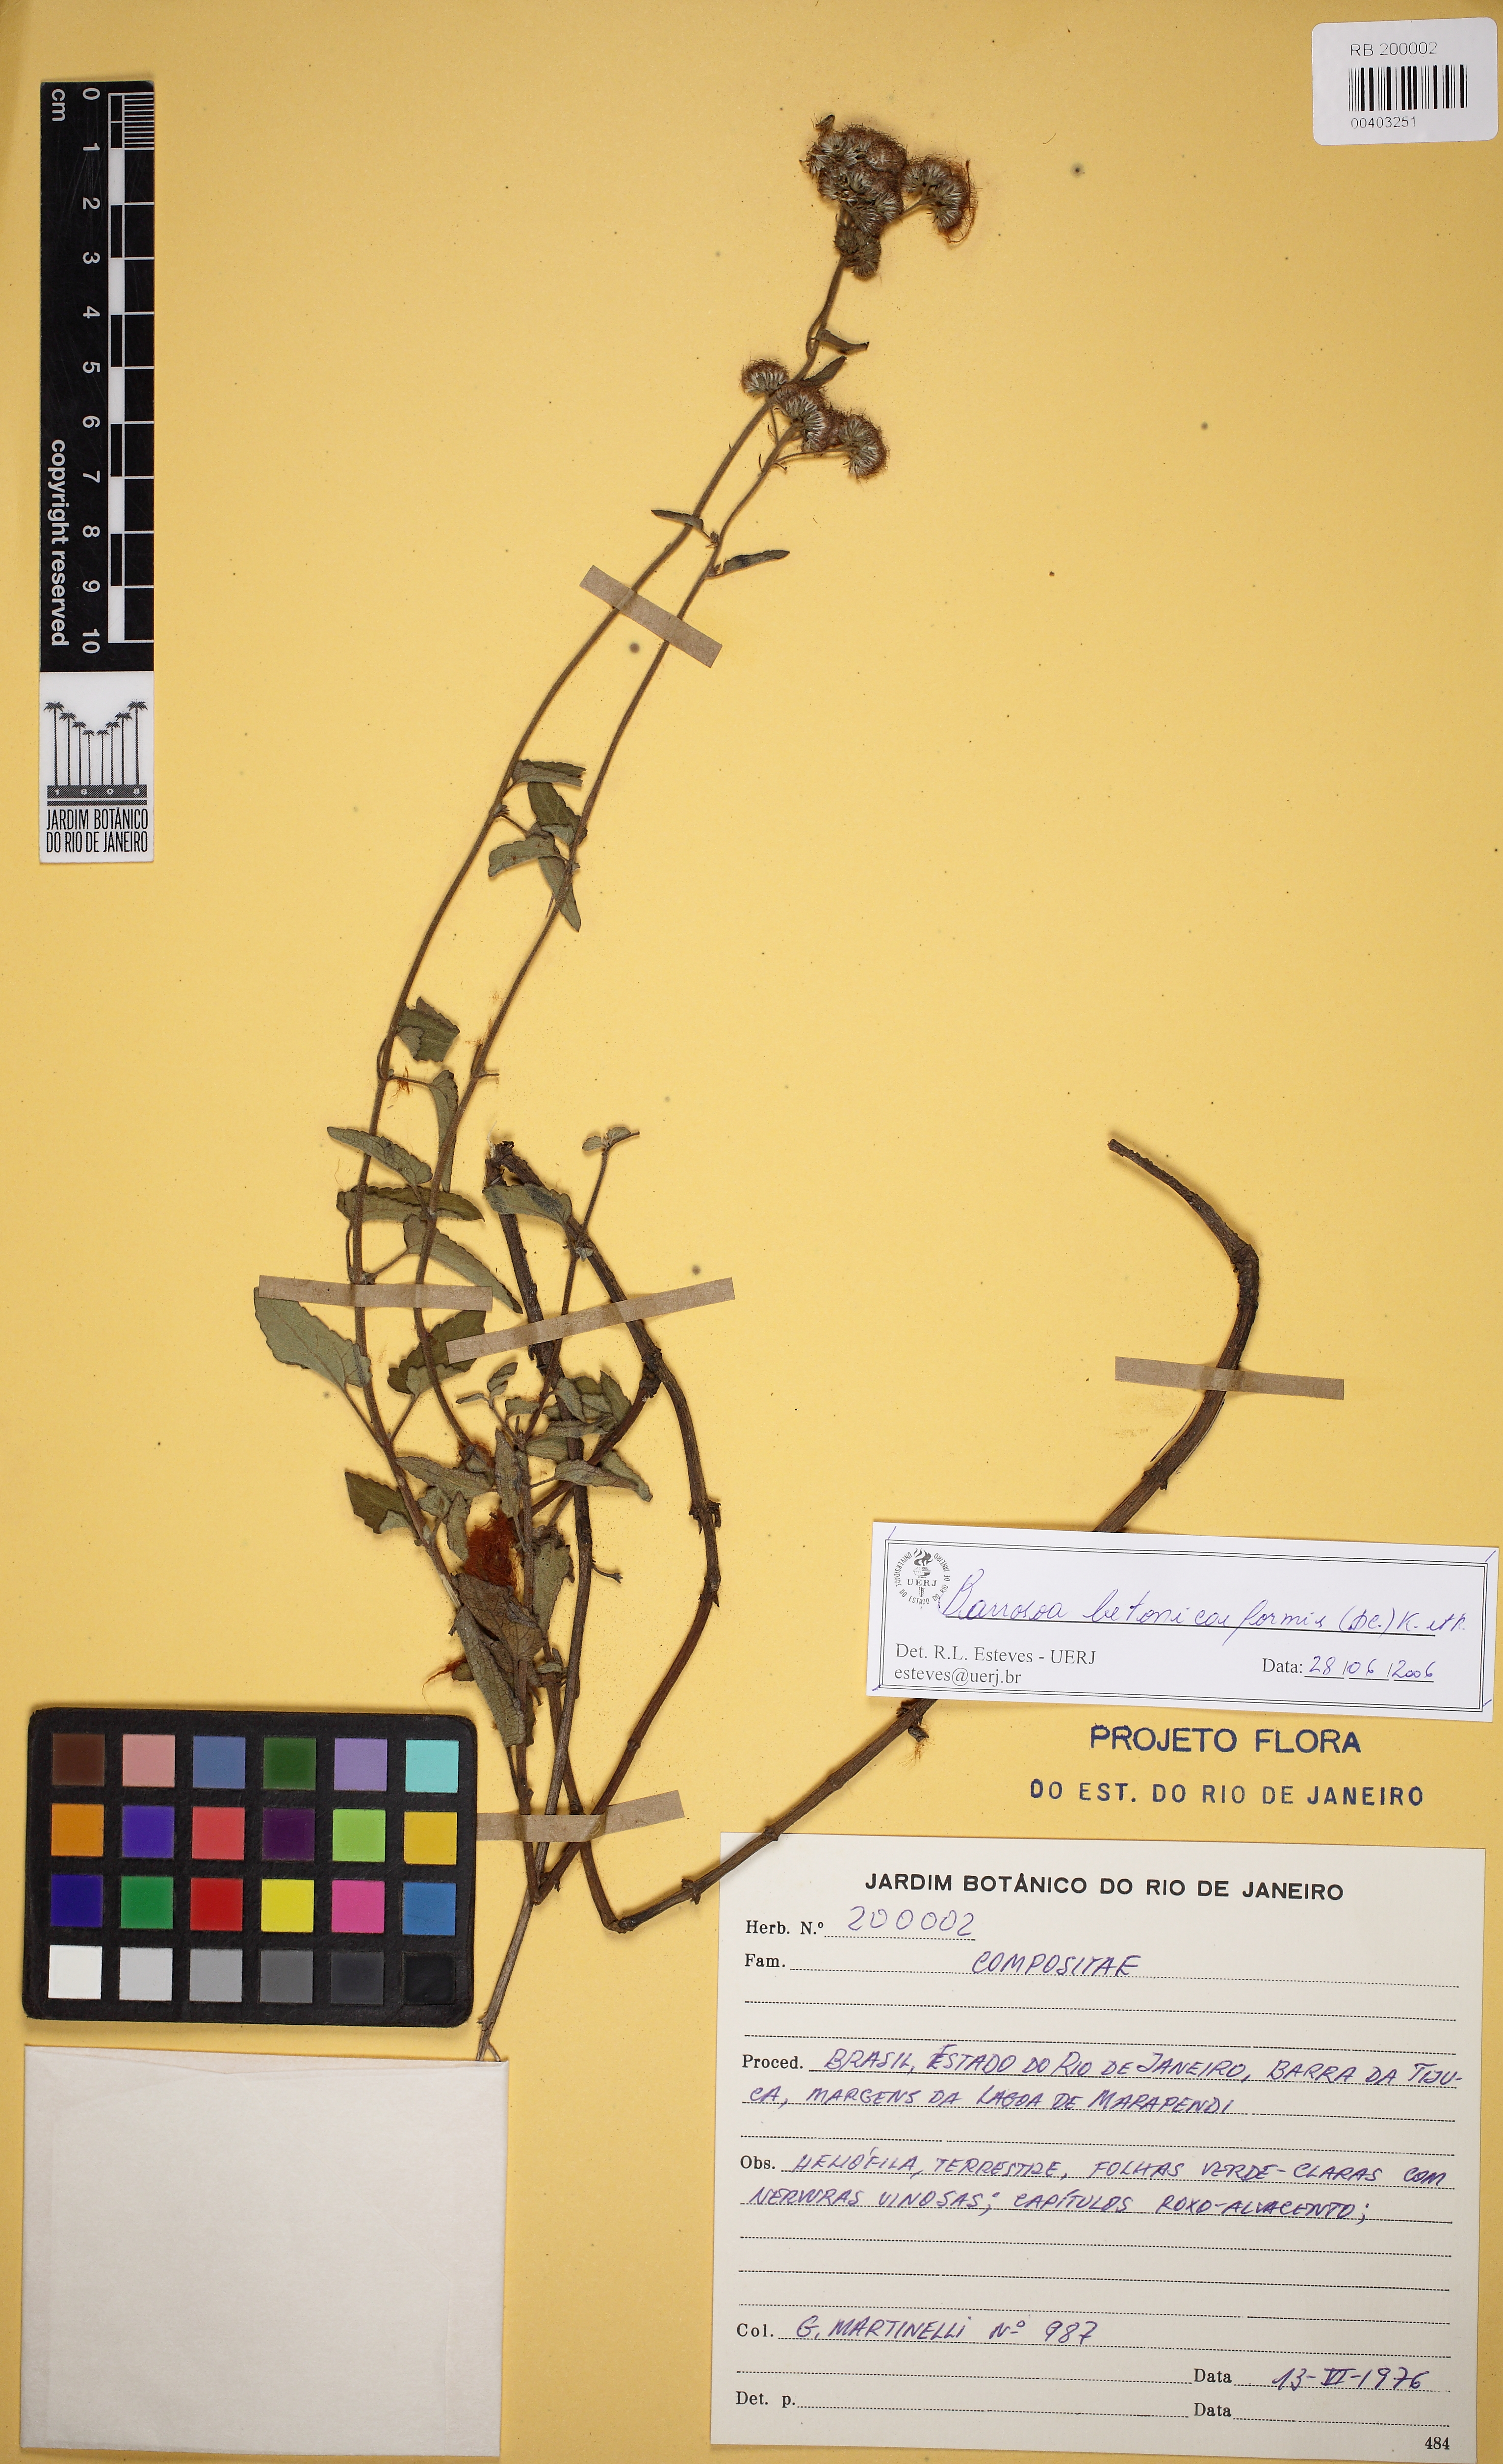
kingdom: Plantae
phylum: Tracheophyta
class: Magnoliopsida
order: Asterales
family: Asteraceae
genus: Barrosoa
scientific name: Barrosoa betoniciformis
